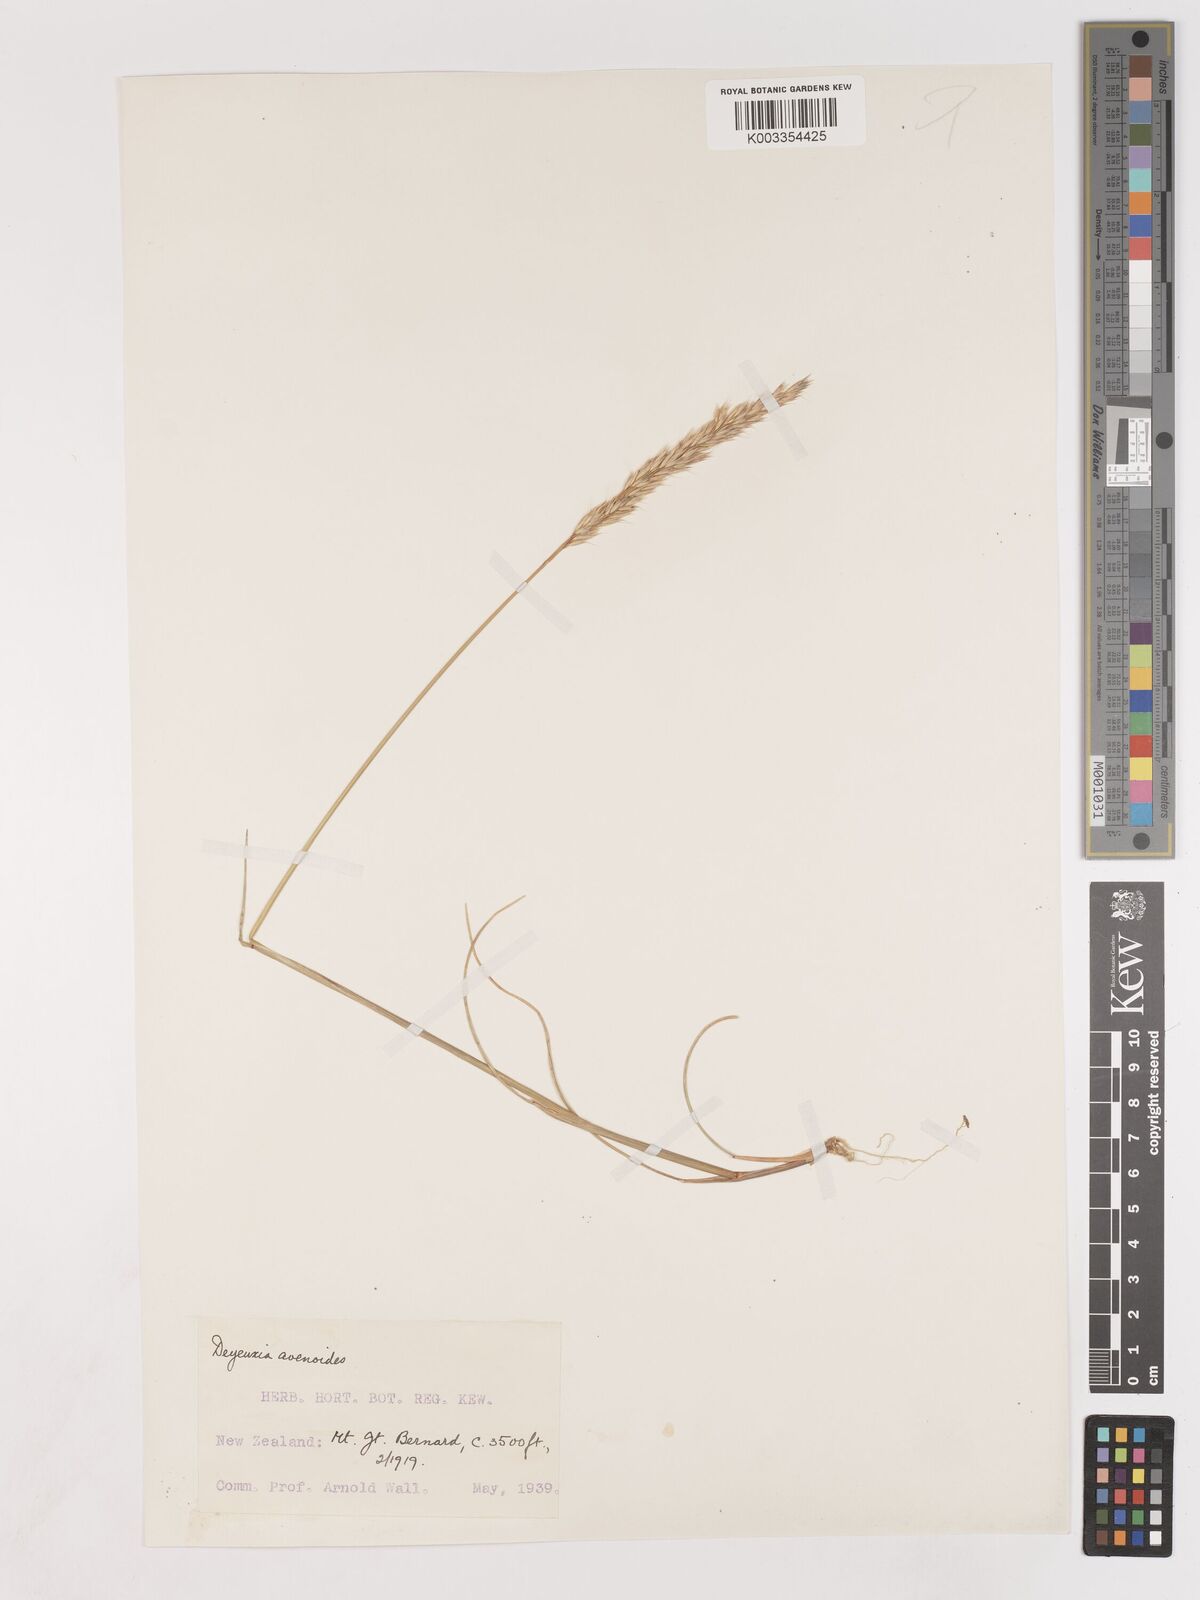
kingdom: Plantae
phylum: Tracheophyta
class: Liliopsida
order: Poales
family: Poaceae
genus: Calamagrostis
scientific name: Calamagrostis avenoides
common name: Mountain oat grass
